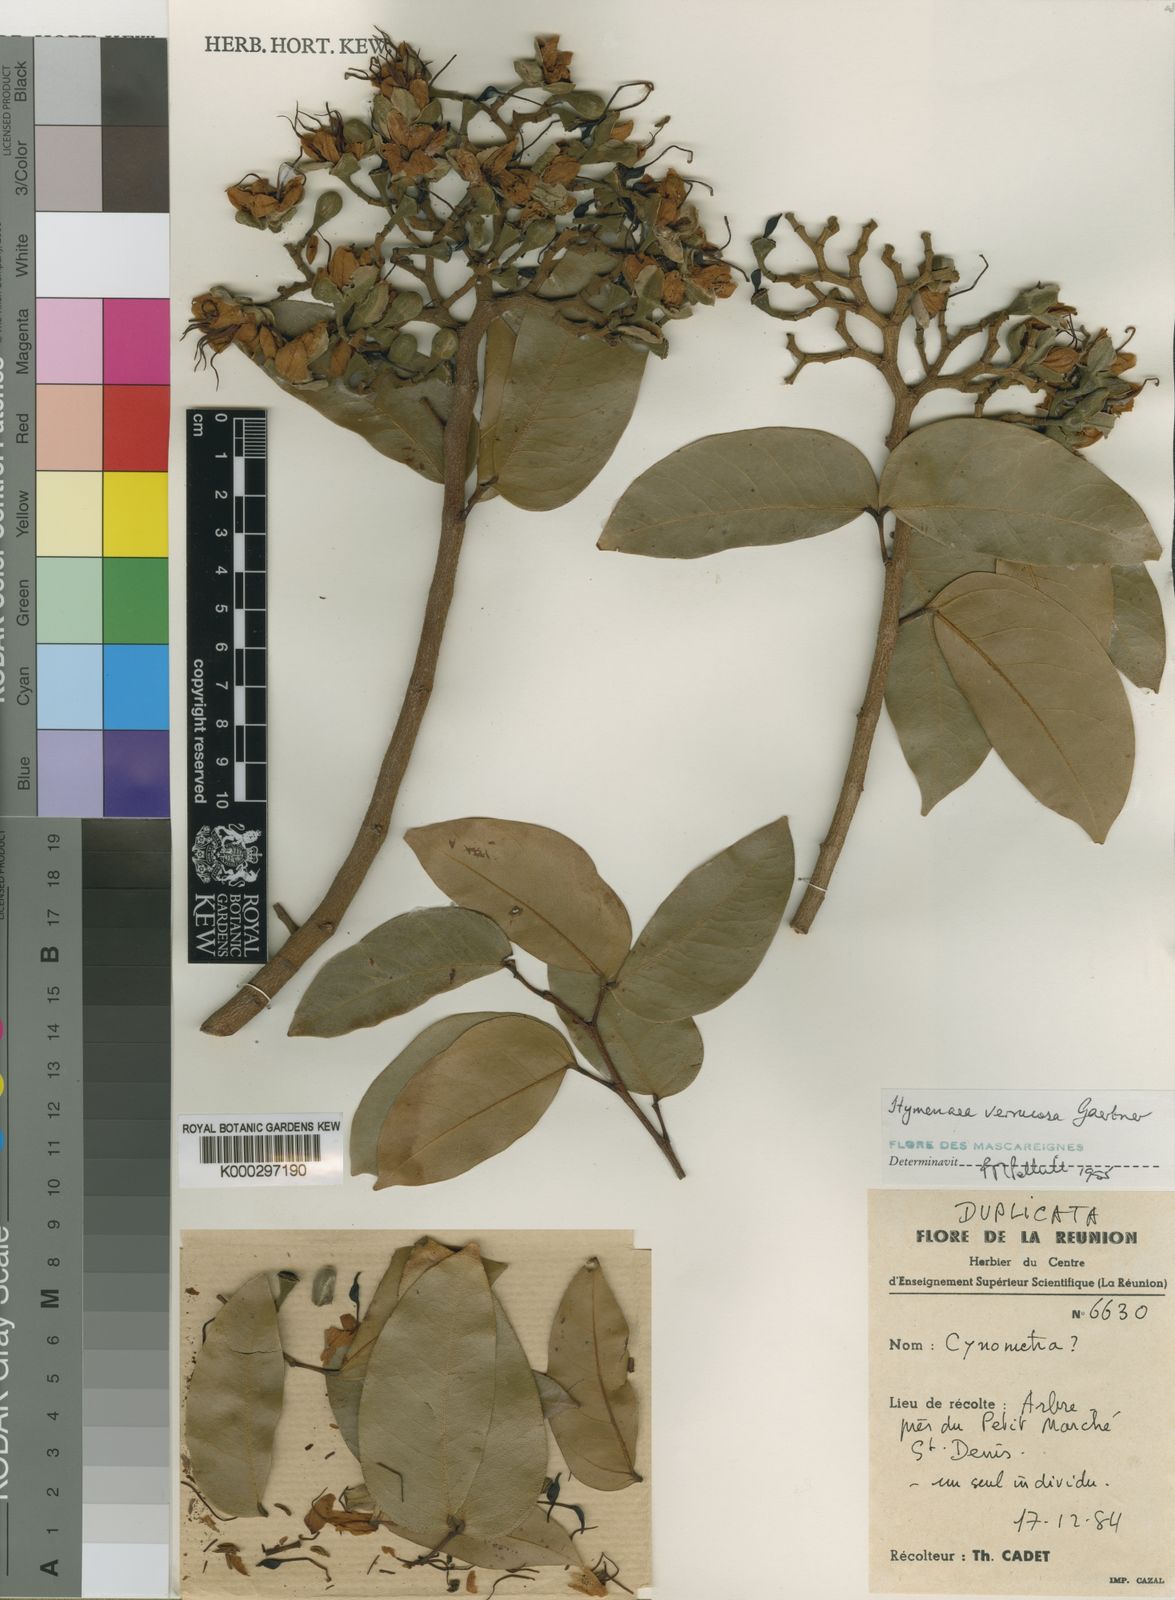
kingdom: Plantae
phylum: Tracheophyta
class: Magnoliopsida
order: Fabales
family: Fabaceae
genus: Hymenaea
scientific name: Hymenaea verrucosa
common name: East african copal
